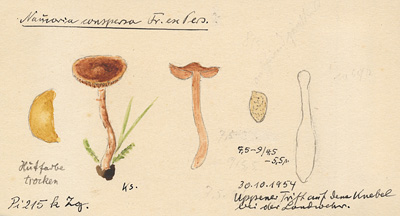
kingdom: Fungi
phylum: Basidiomycota
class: Agaricomycetes
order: Agaricales
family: Tubariaceae
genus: Tubaria
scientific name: Tubaria conspersa
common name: Felted twiglet
